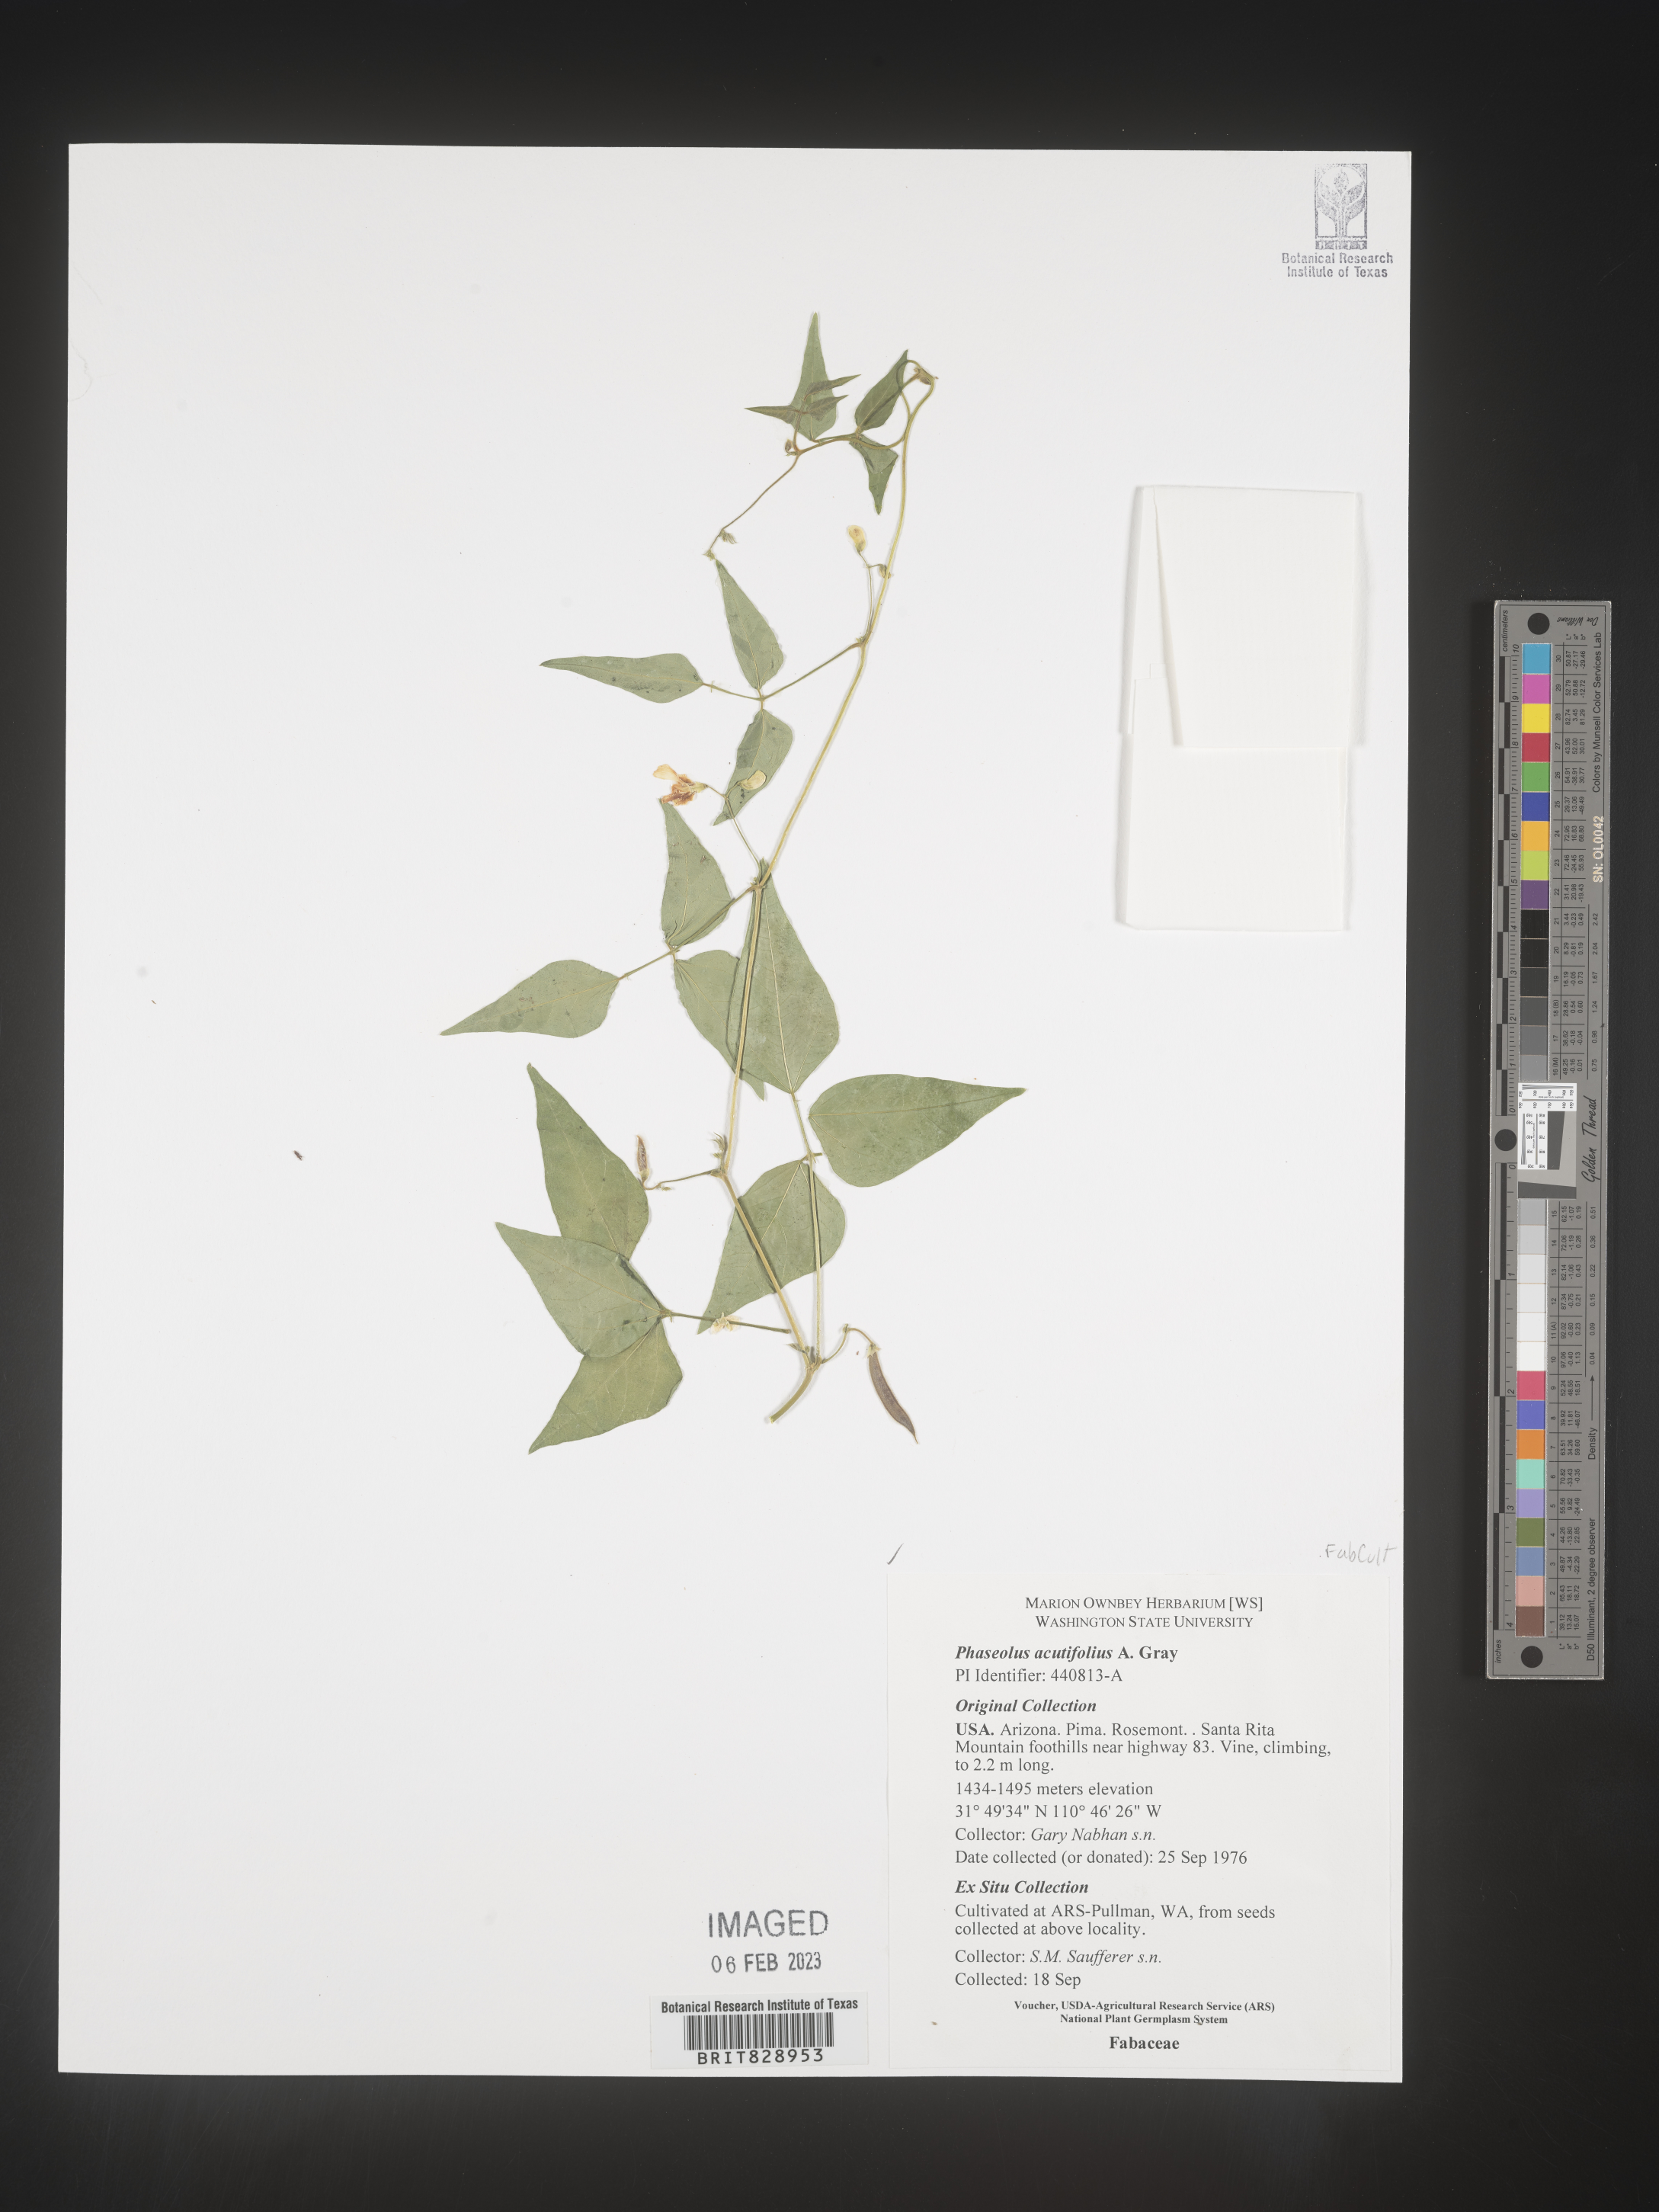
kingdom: Plantae
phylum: Tracheophyta
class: Magnoliopsida
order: Fabales
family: Fabaceae
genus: Phaseolus
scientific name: Phaseolus
